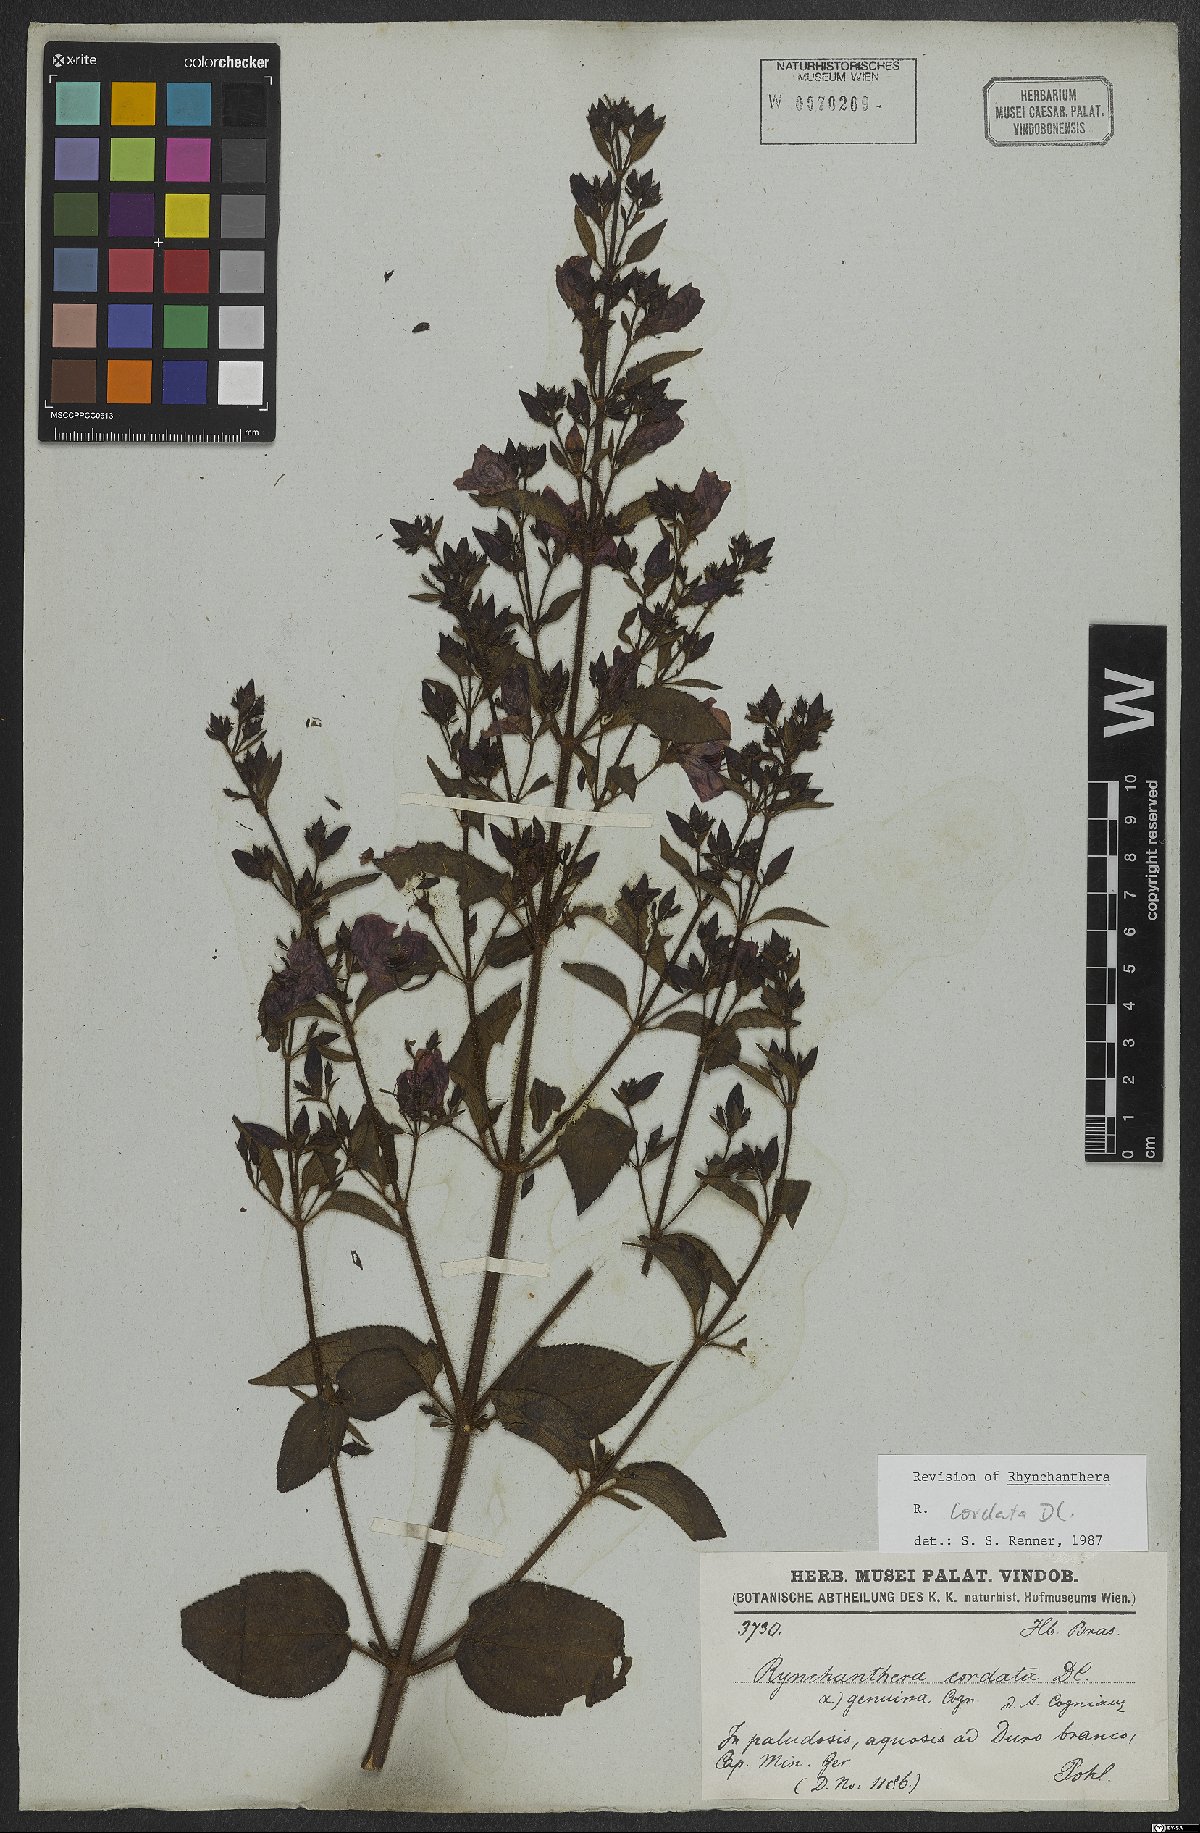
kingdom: Plantae
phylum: Tracheophyta
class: Magnoliopsida
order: Myrtales
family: Melastomataceae
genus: Rhynchanthera
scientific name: Rhynchanthera cordata
